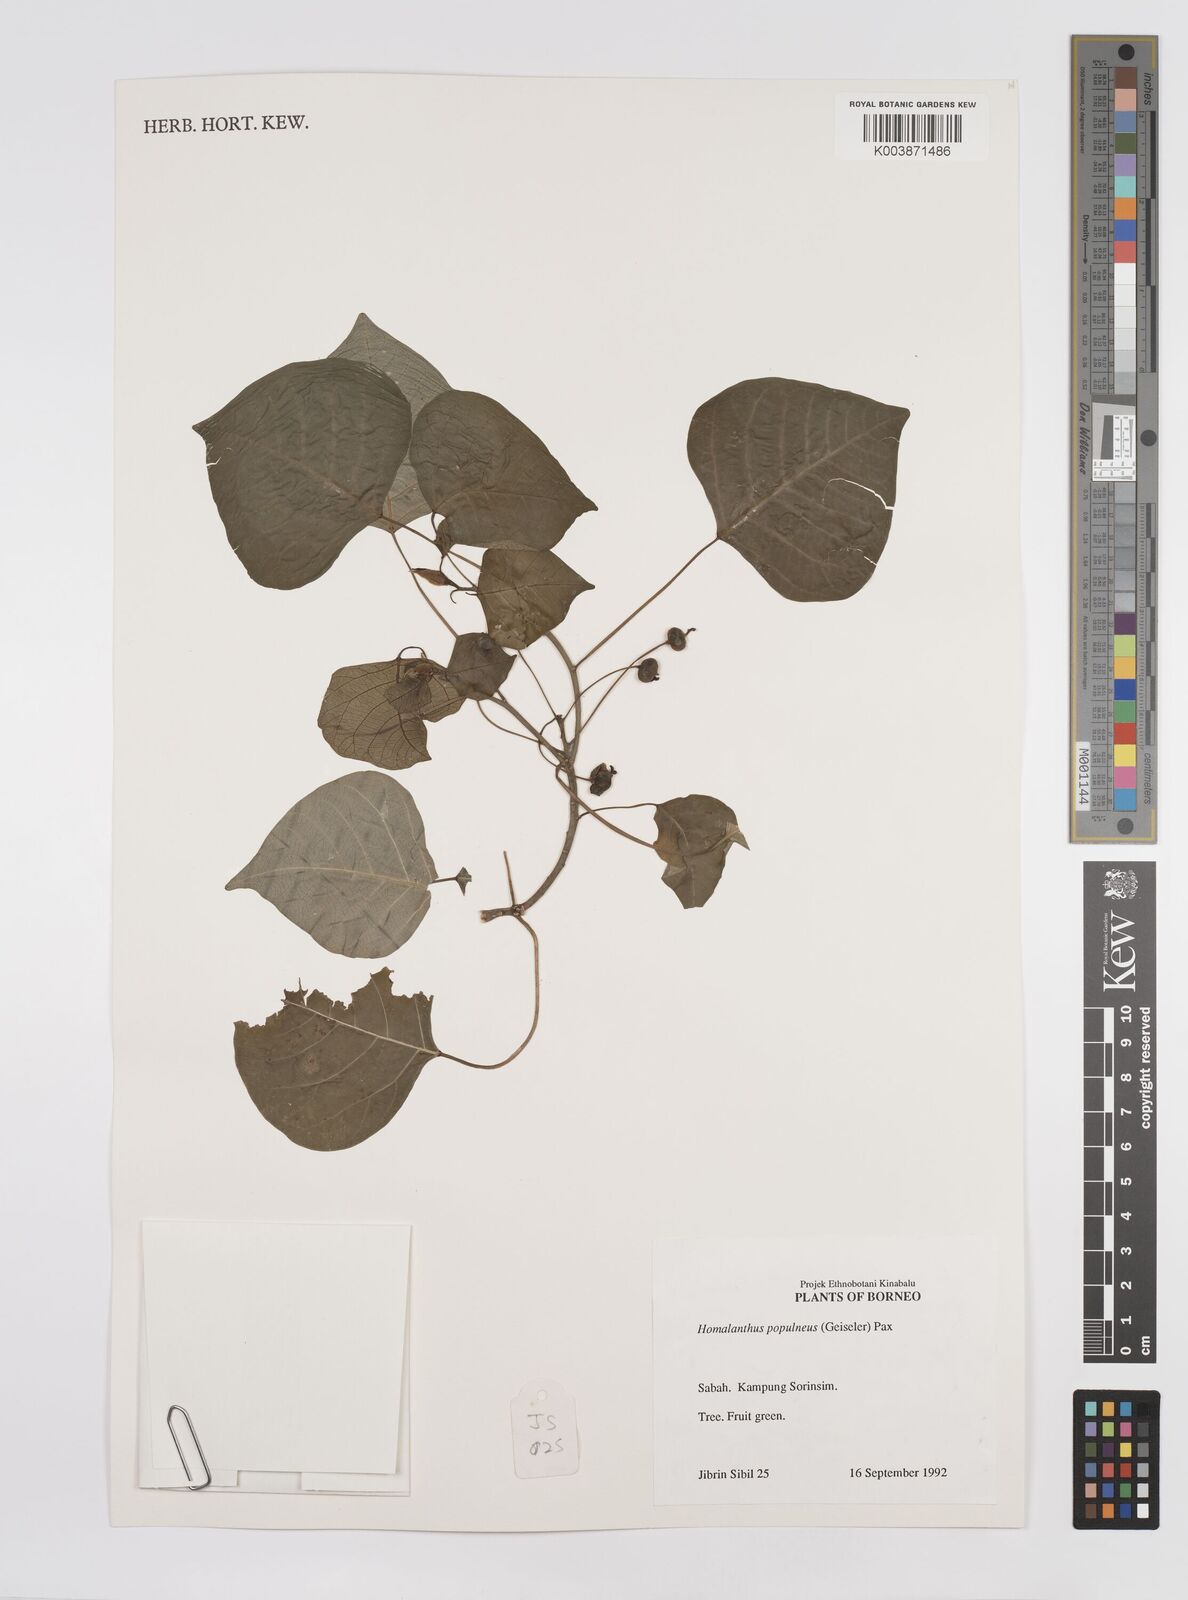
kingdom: Plantae
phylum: Tracheophyta
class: Magnoliopsida
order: Malpighiales
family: Euphorbiaceae
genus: Homalanthus
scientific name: Homalanthus populneus
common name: Spurge
